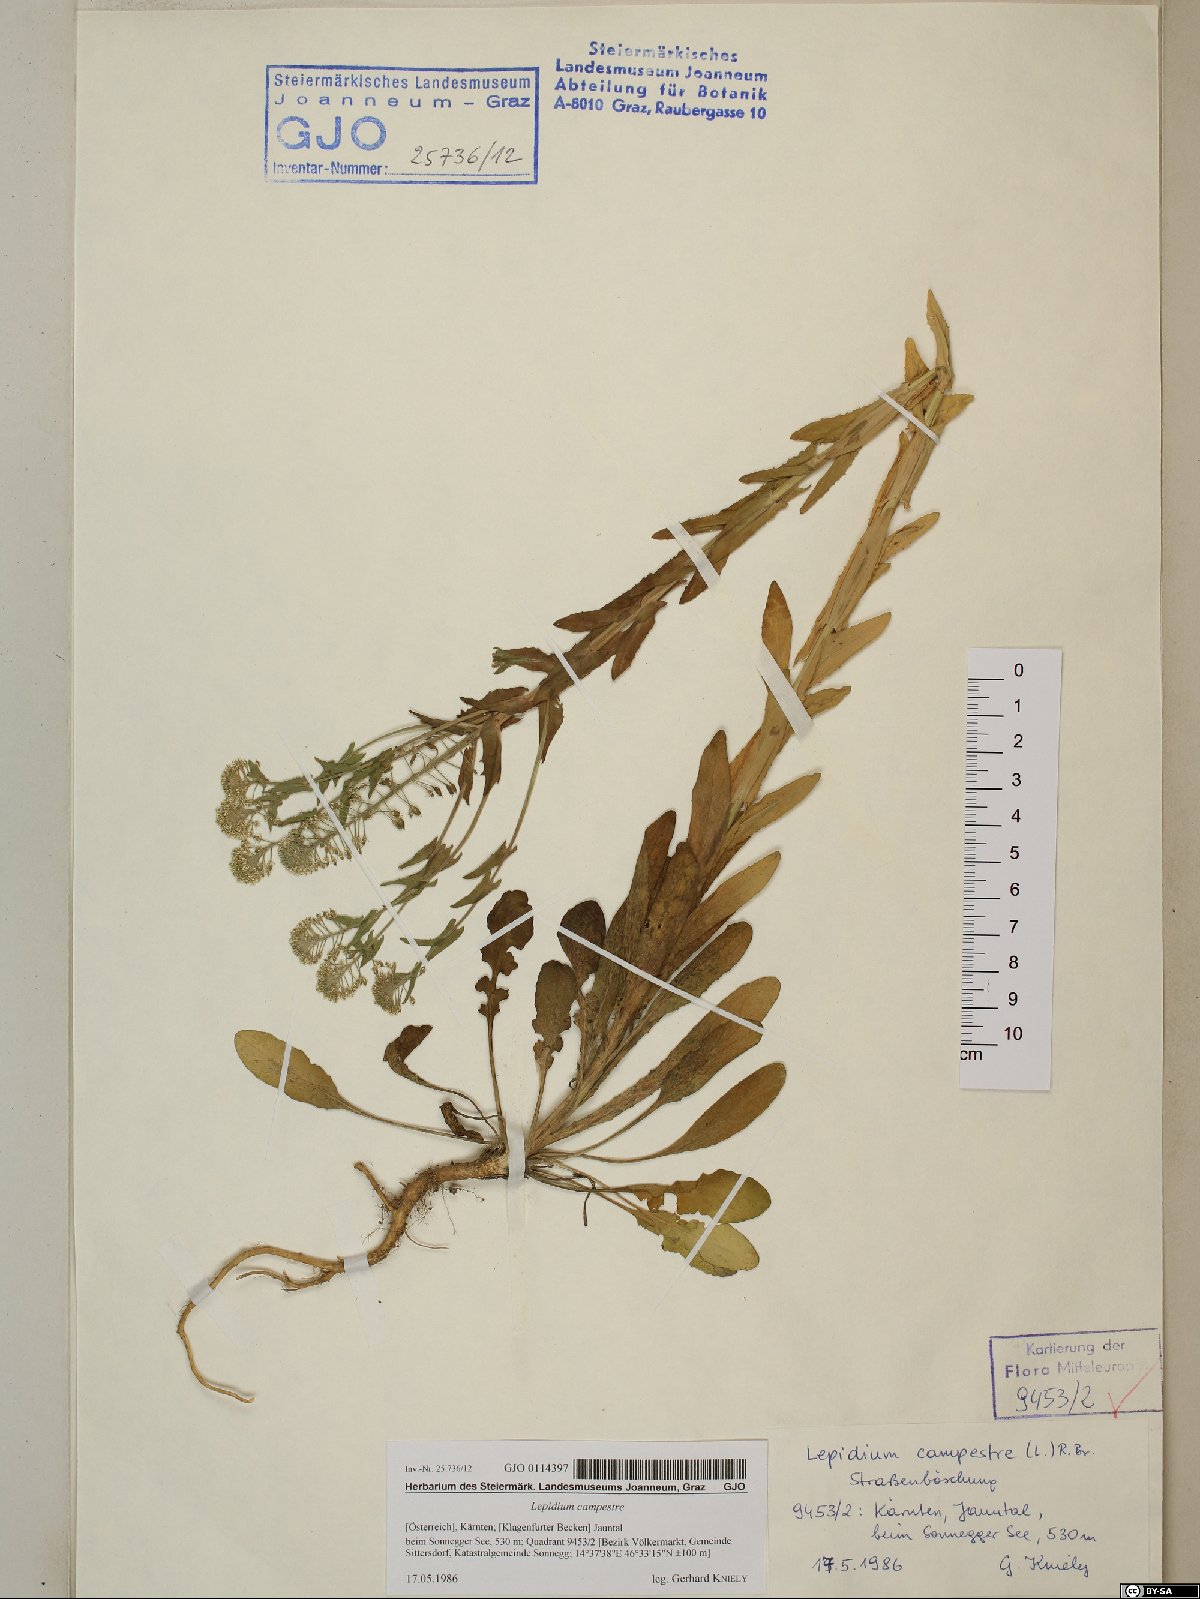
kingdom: Plantae
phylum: Tracheophyta
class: Magnoliopsida
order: Brassicales
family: Brassicaceae
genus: Lepidium
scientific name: Lepidium campestre
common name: Field pepperwort
